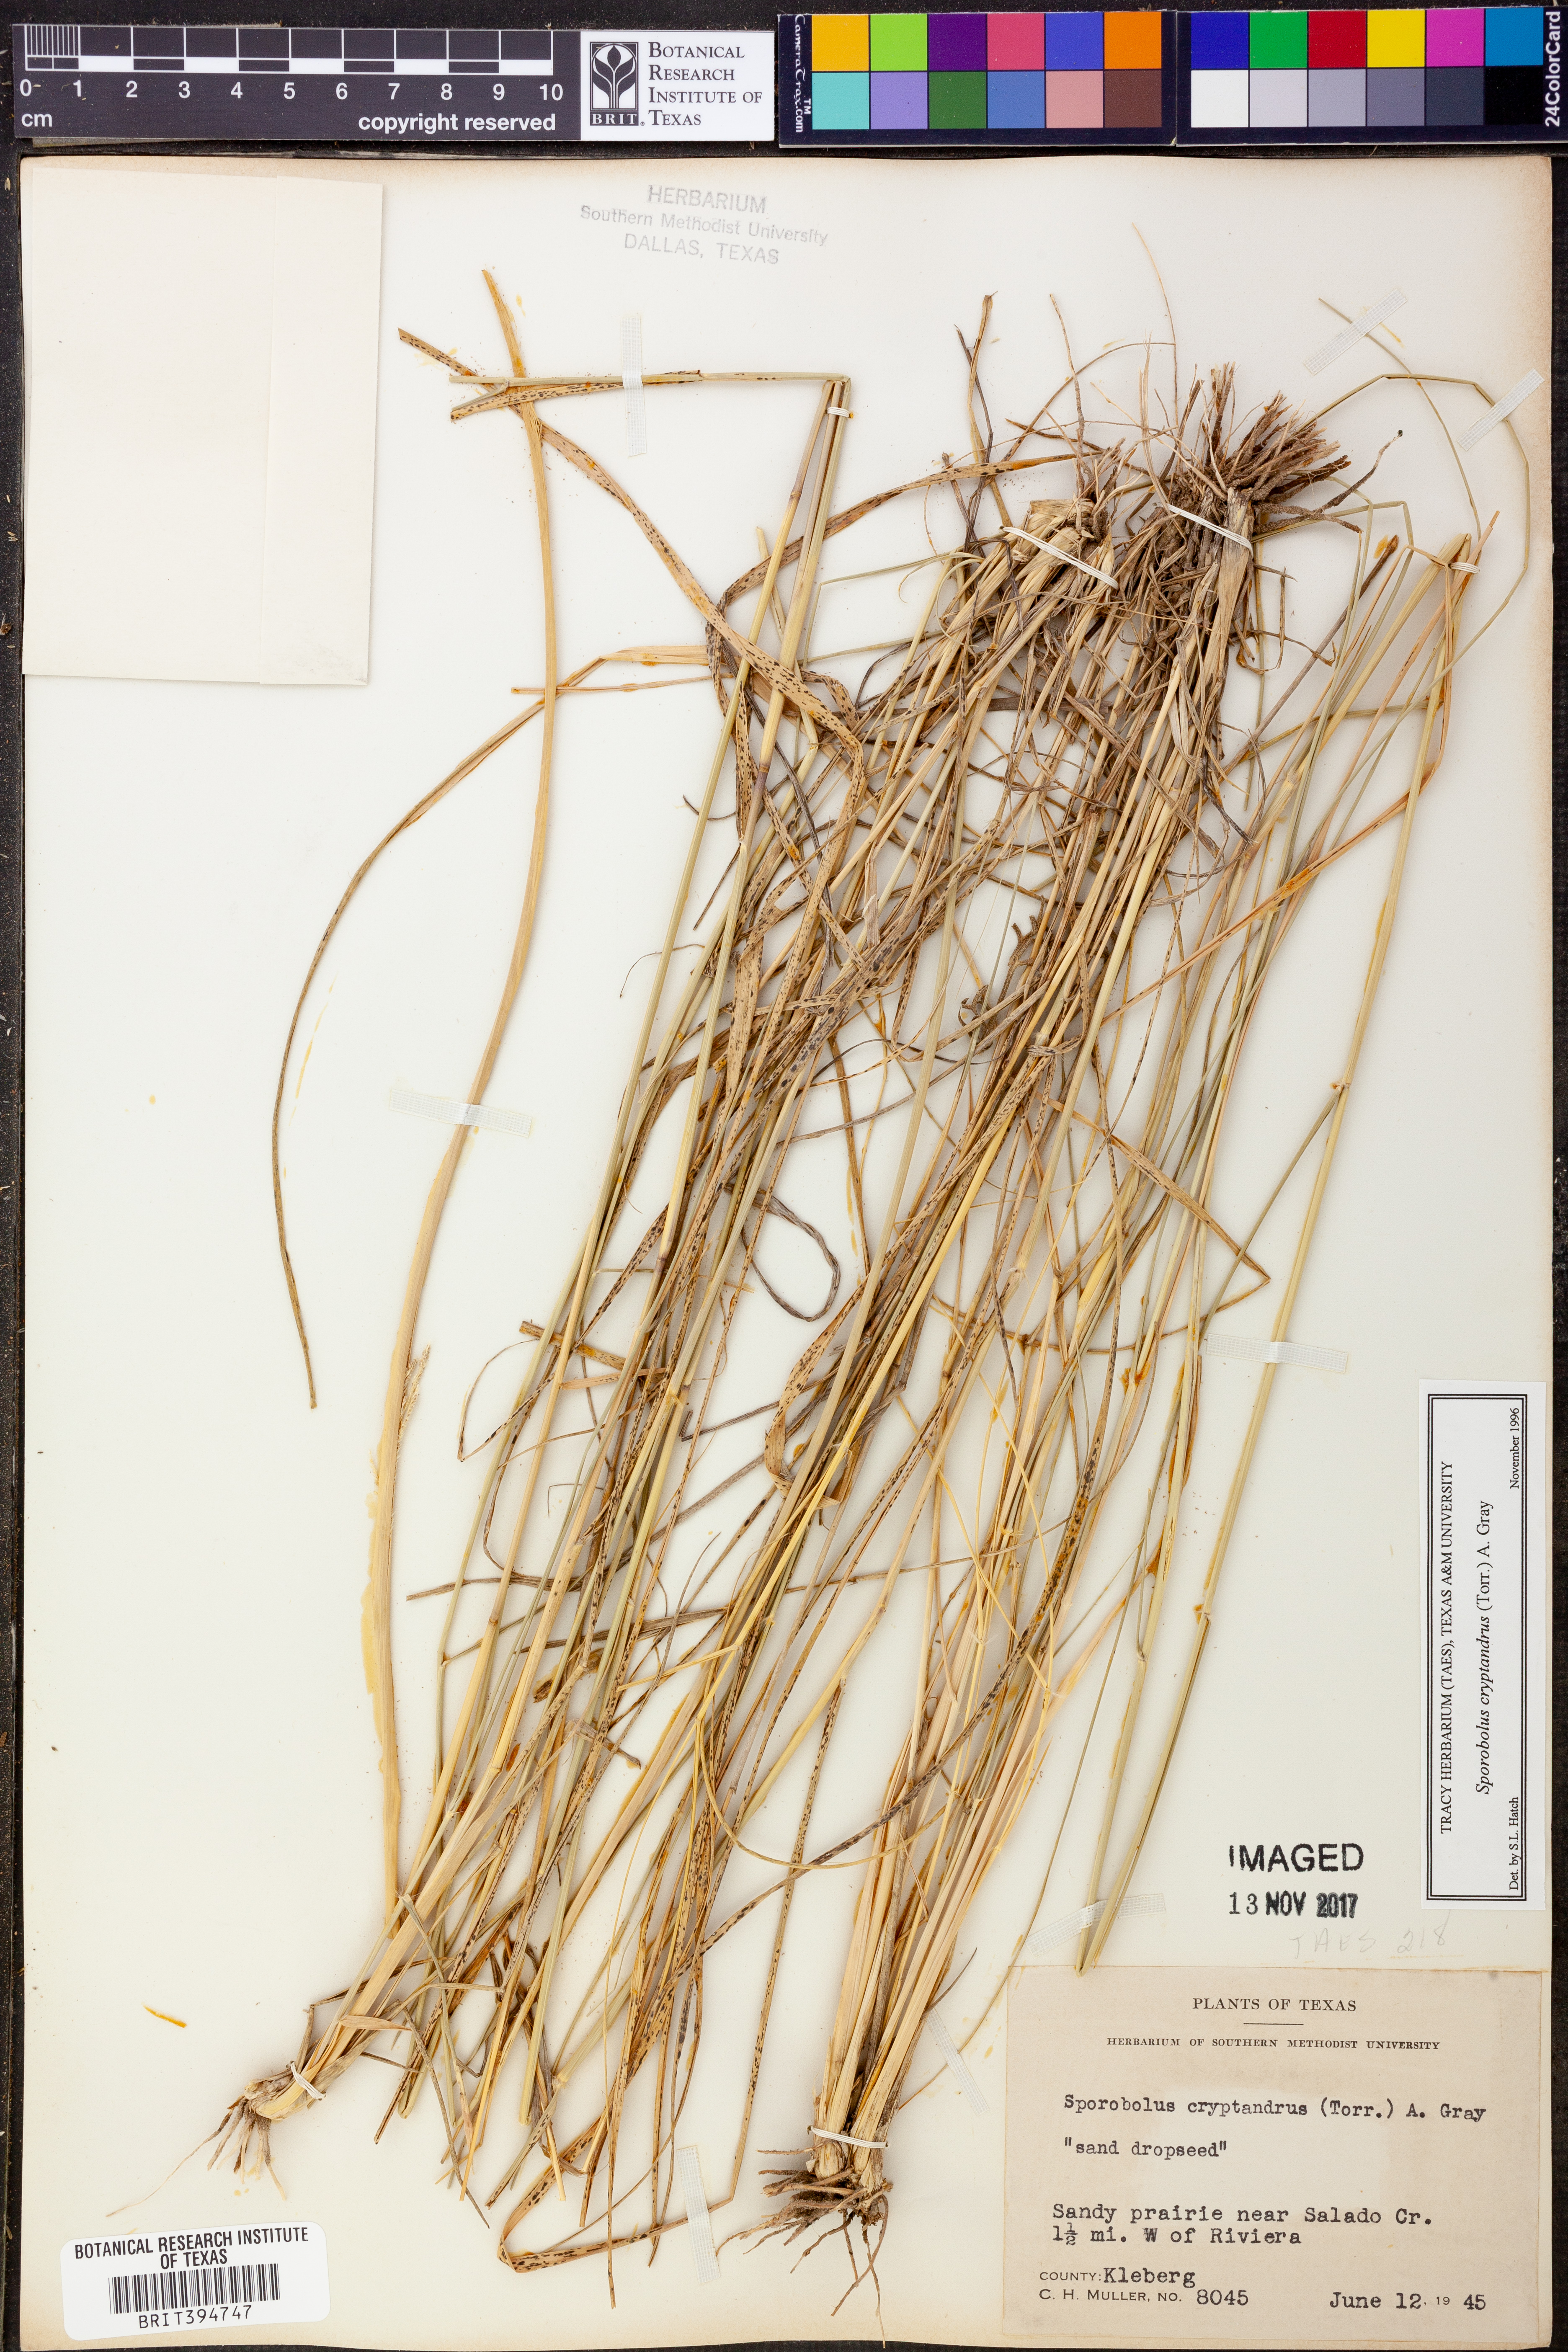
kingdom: Plantae
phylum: Tracheophyta
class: Liliopsida
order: Poales
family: Poaceae
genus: Sporobolus
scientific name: Sporobolus cryptandrus
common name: Sand dropseed
